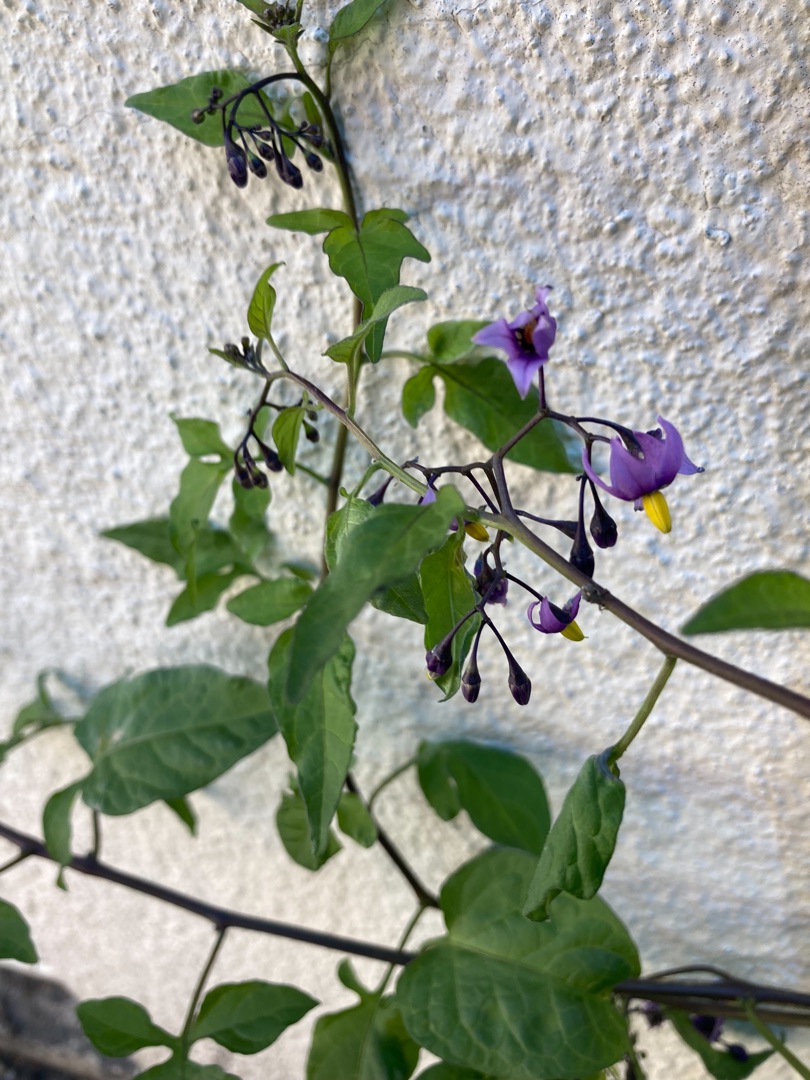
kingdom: Plantae
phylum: Tracheophyta
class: Magnoliopsida
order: Solanales
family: Solanaceae
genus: Solanum
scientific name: Solanum dulcamara
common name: Bittersød natskygge
